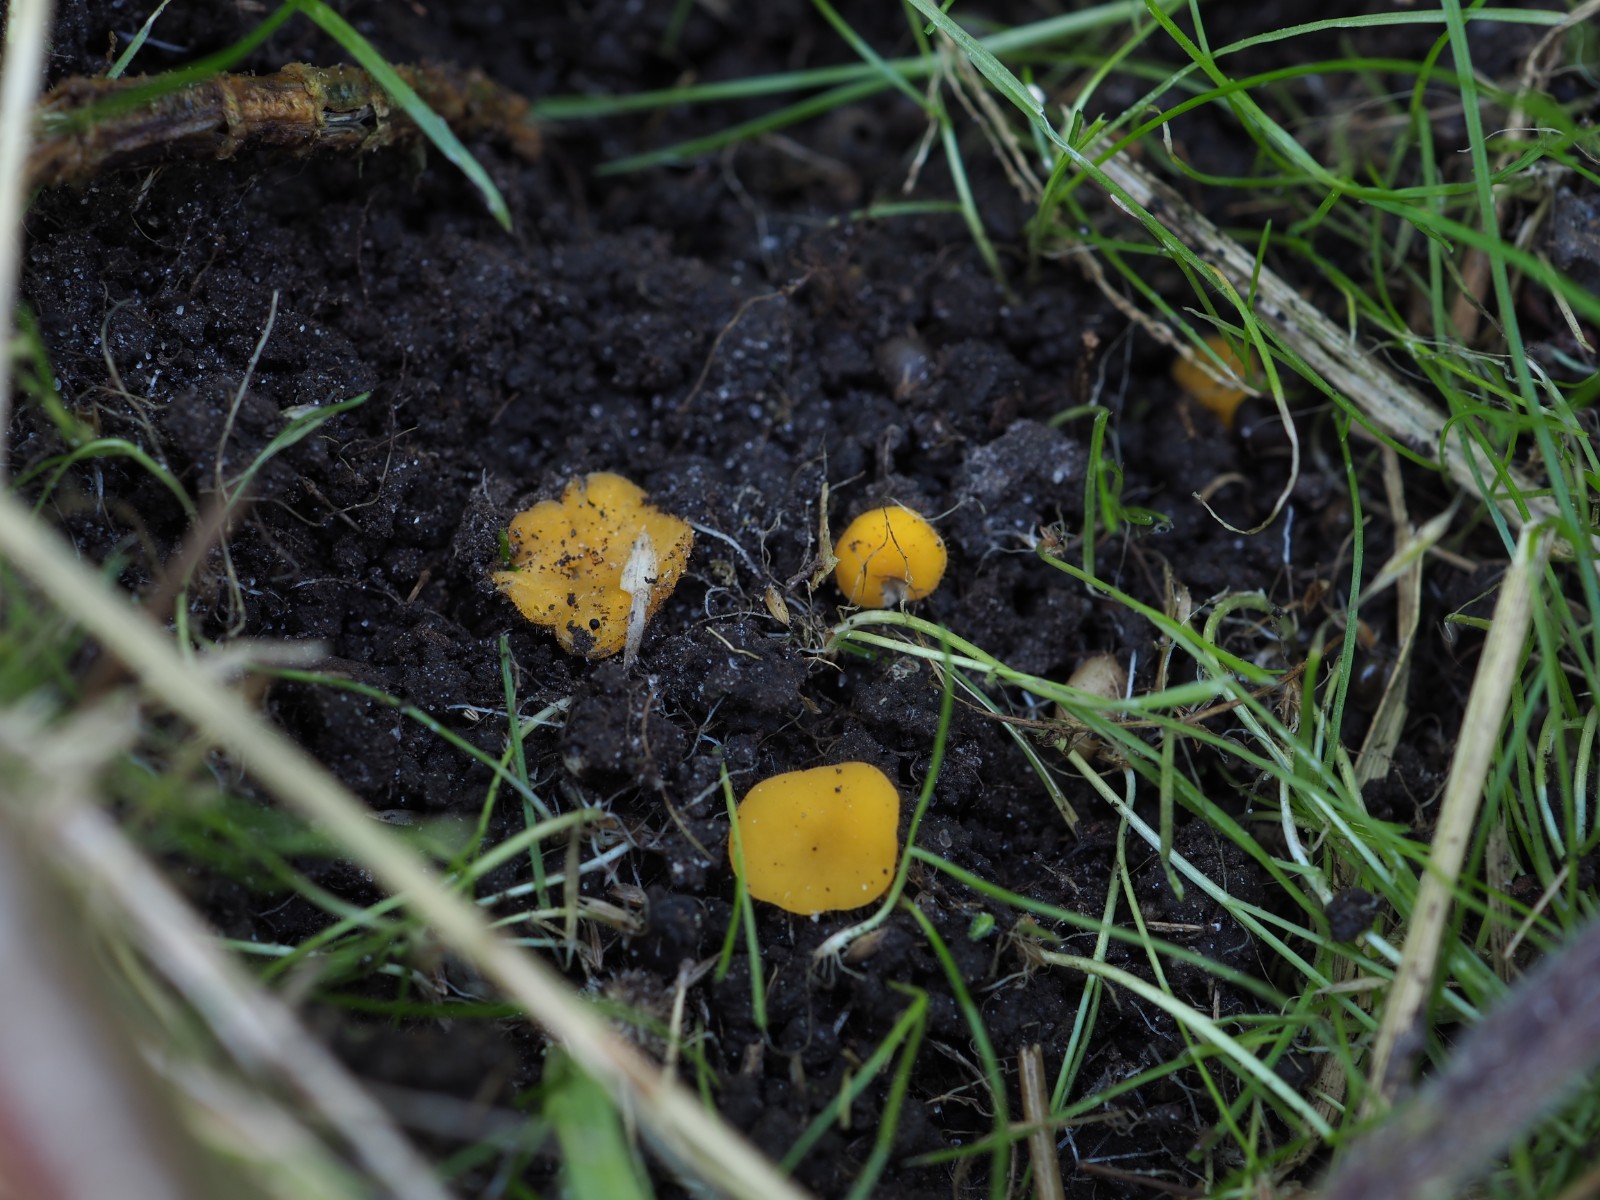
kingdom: Fungi
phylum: Ascomycota
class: Pezizomycetes
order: Pezizales
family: Pyronemataceae
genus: Cheilymenia
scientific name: Cheilymenia vitellina
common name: æggegul hårbæger
